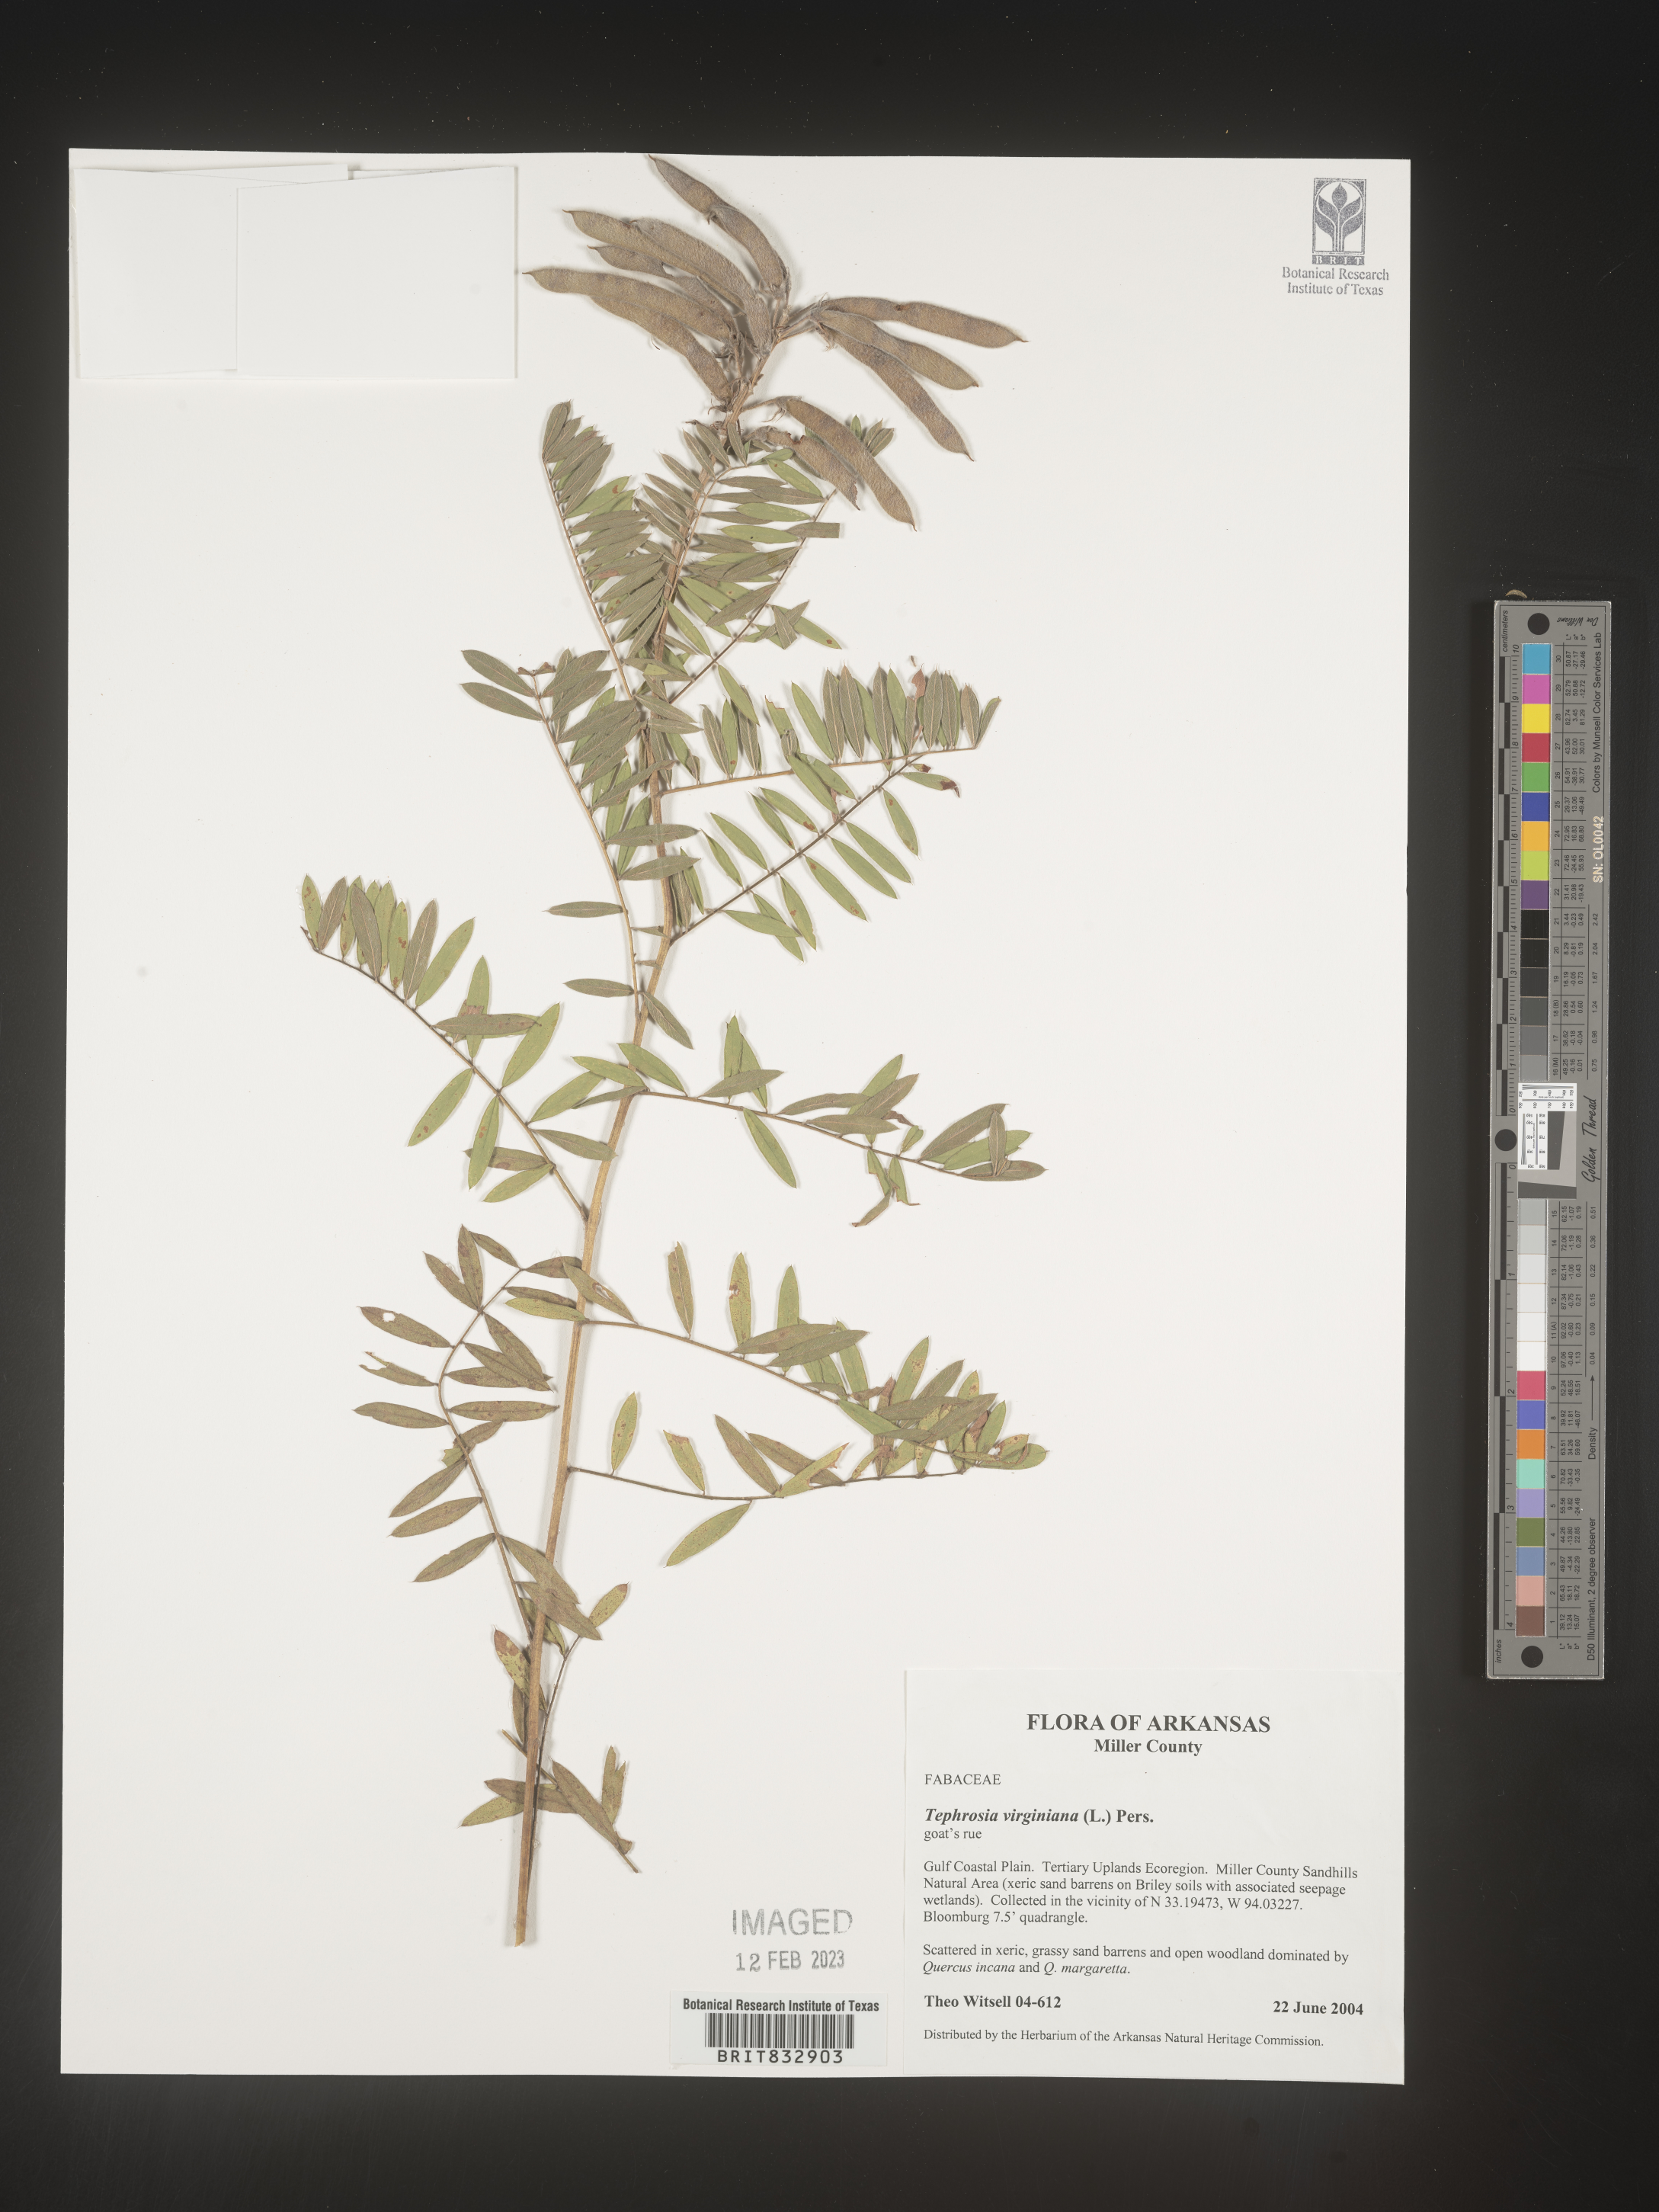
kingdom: Plantae
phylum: Tracheophyta
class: Magnoliopsida
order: Fabales
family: Fabaceae
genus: Tephrosia
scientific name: Tephrosia virginiana
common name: Rabbit-pea
